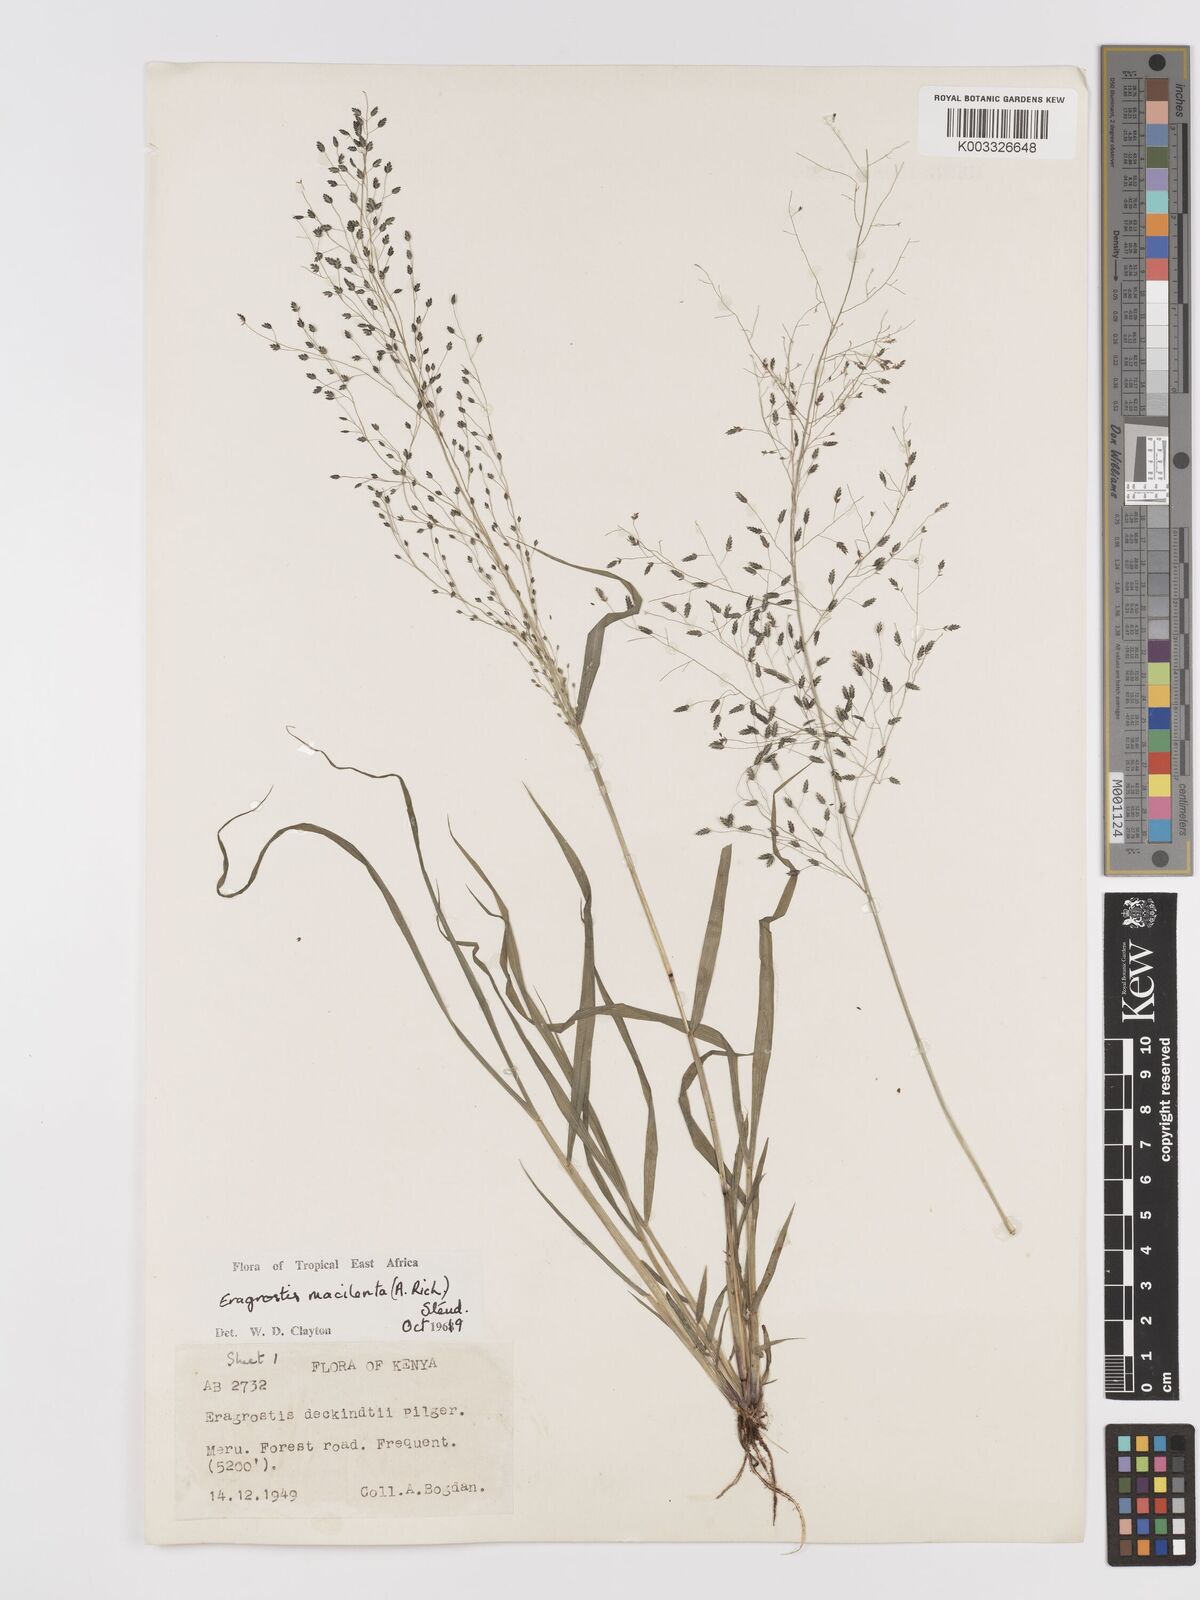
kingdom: Plantae
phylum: Tracheophyta
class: Liliopsida
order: Poales
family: Poaceae
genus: Eragrostis
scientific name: Eragrostis macilenta
